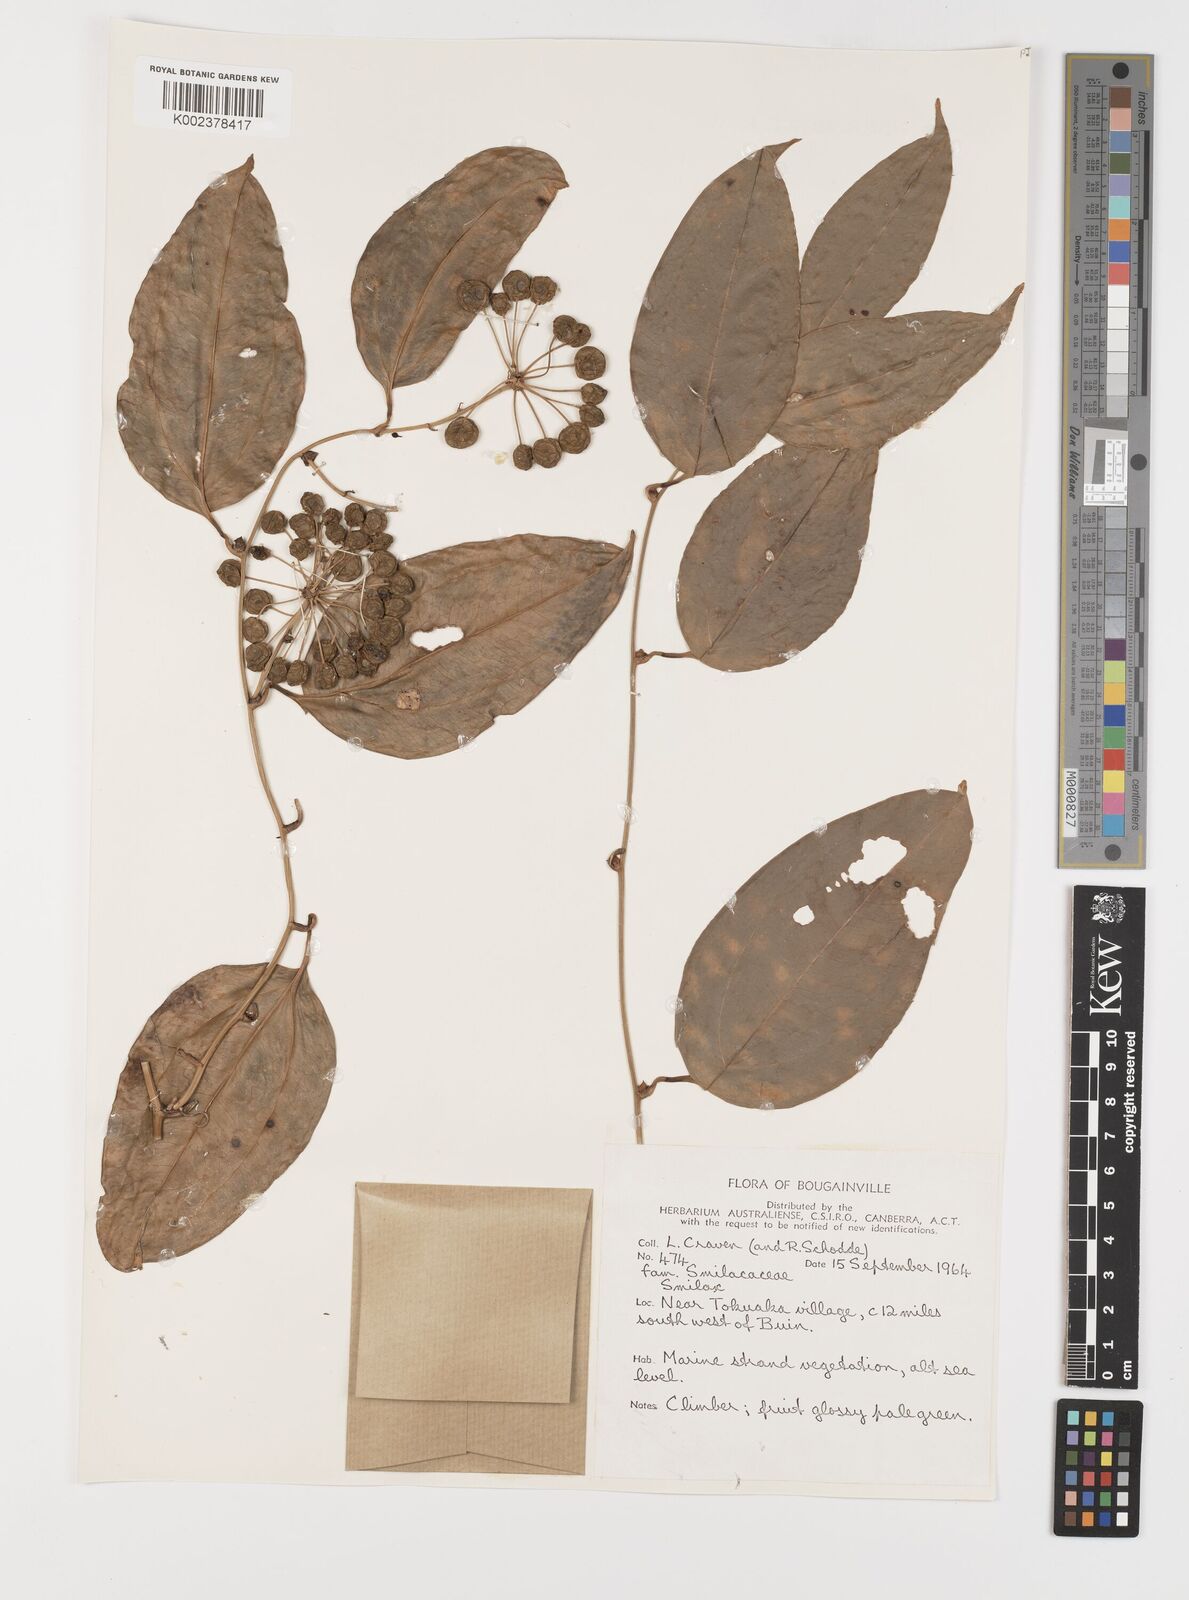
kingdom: Plantae
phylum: Tracheophyta
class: Liliopsida
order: Liliales
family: Smilacaceae
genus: Smilax
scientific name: Smilax
